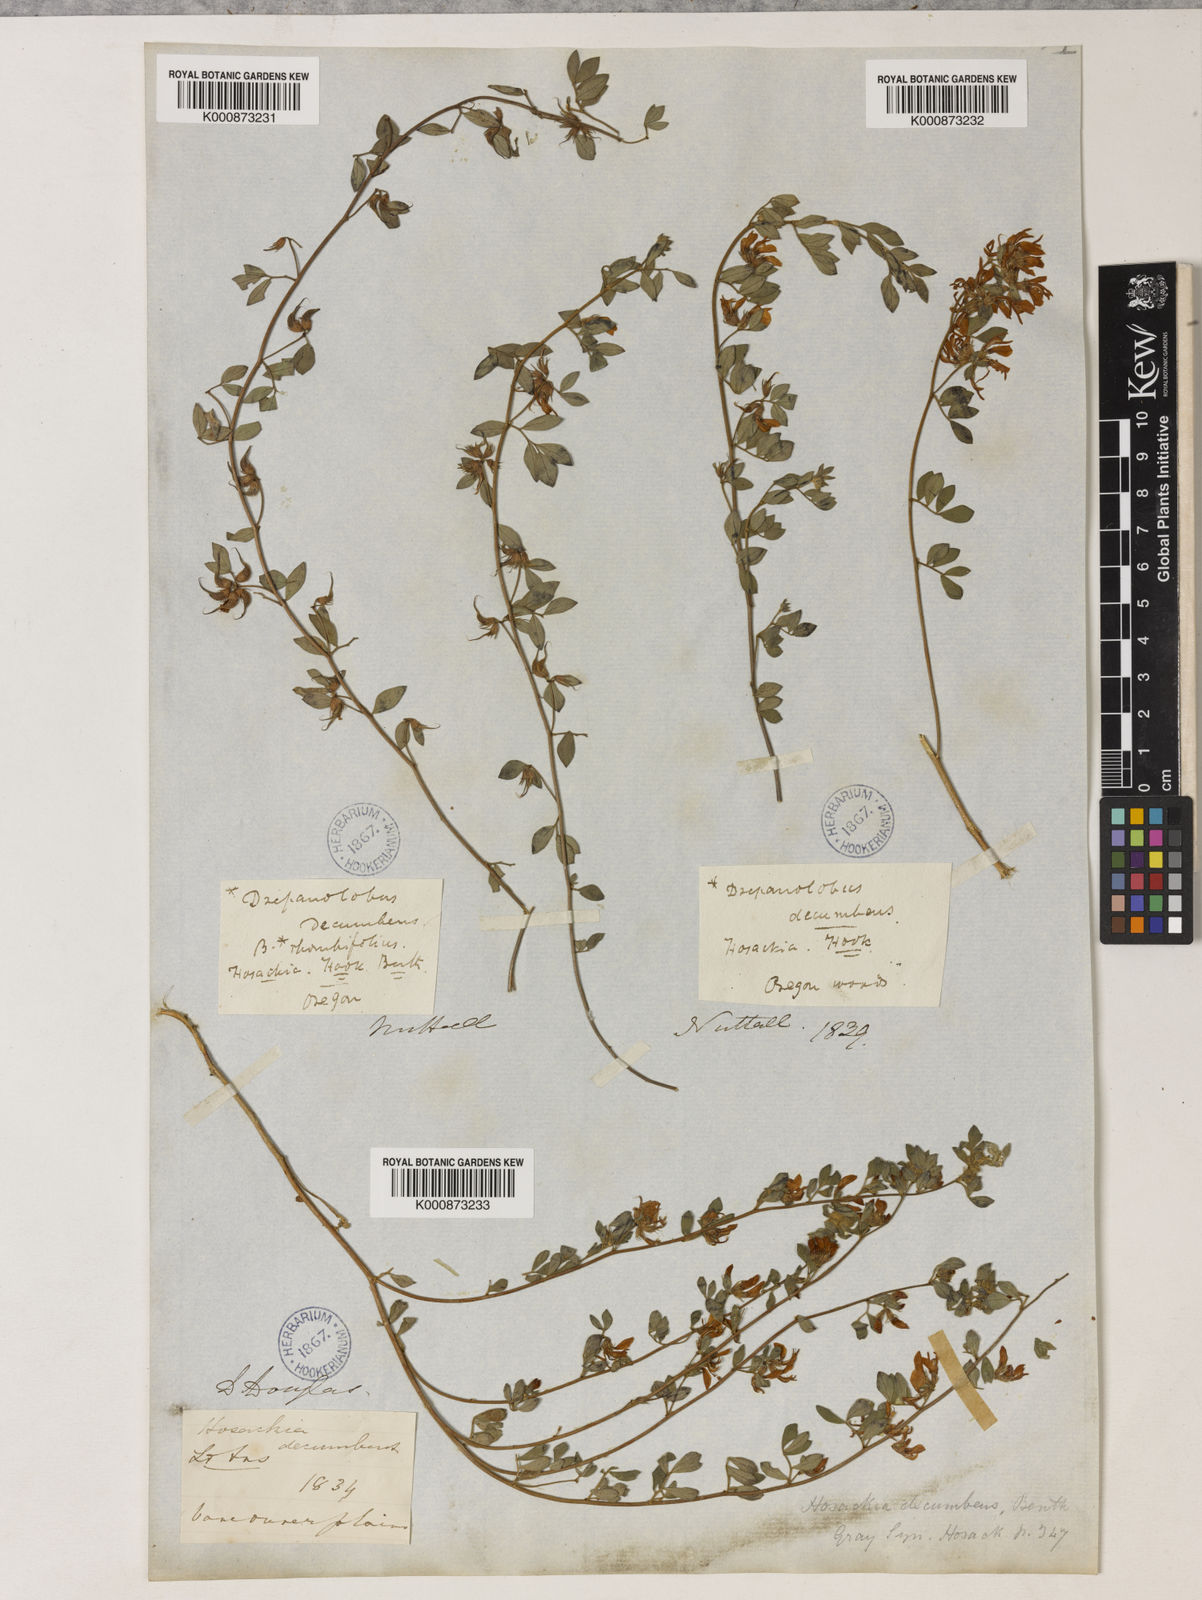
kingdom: Plantae
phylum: Tracheophyta
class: Magnoliopsida
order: Fabales
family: Fabaceae
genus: Acmispon
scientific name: Acmispon decumbens
